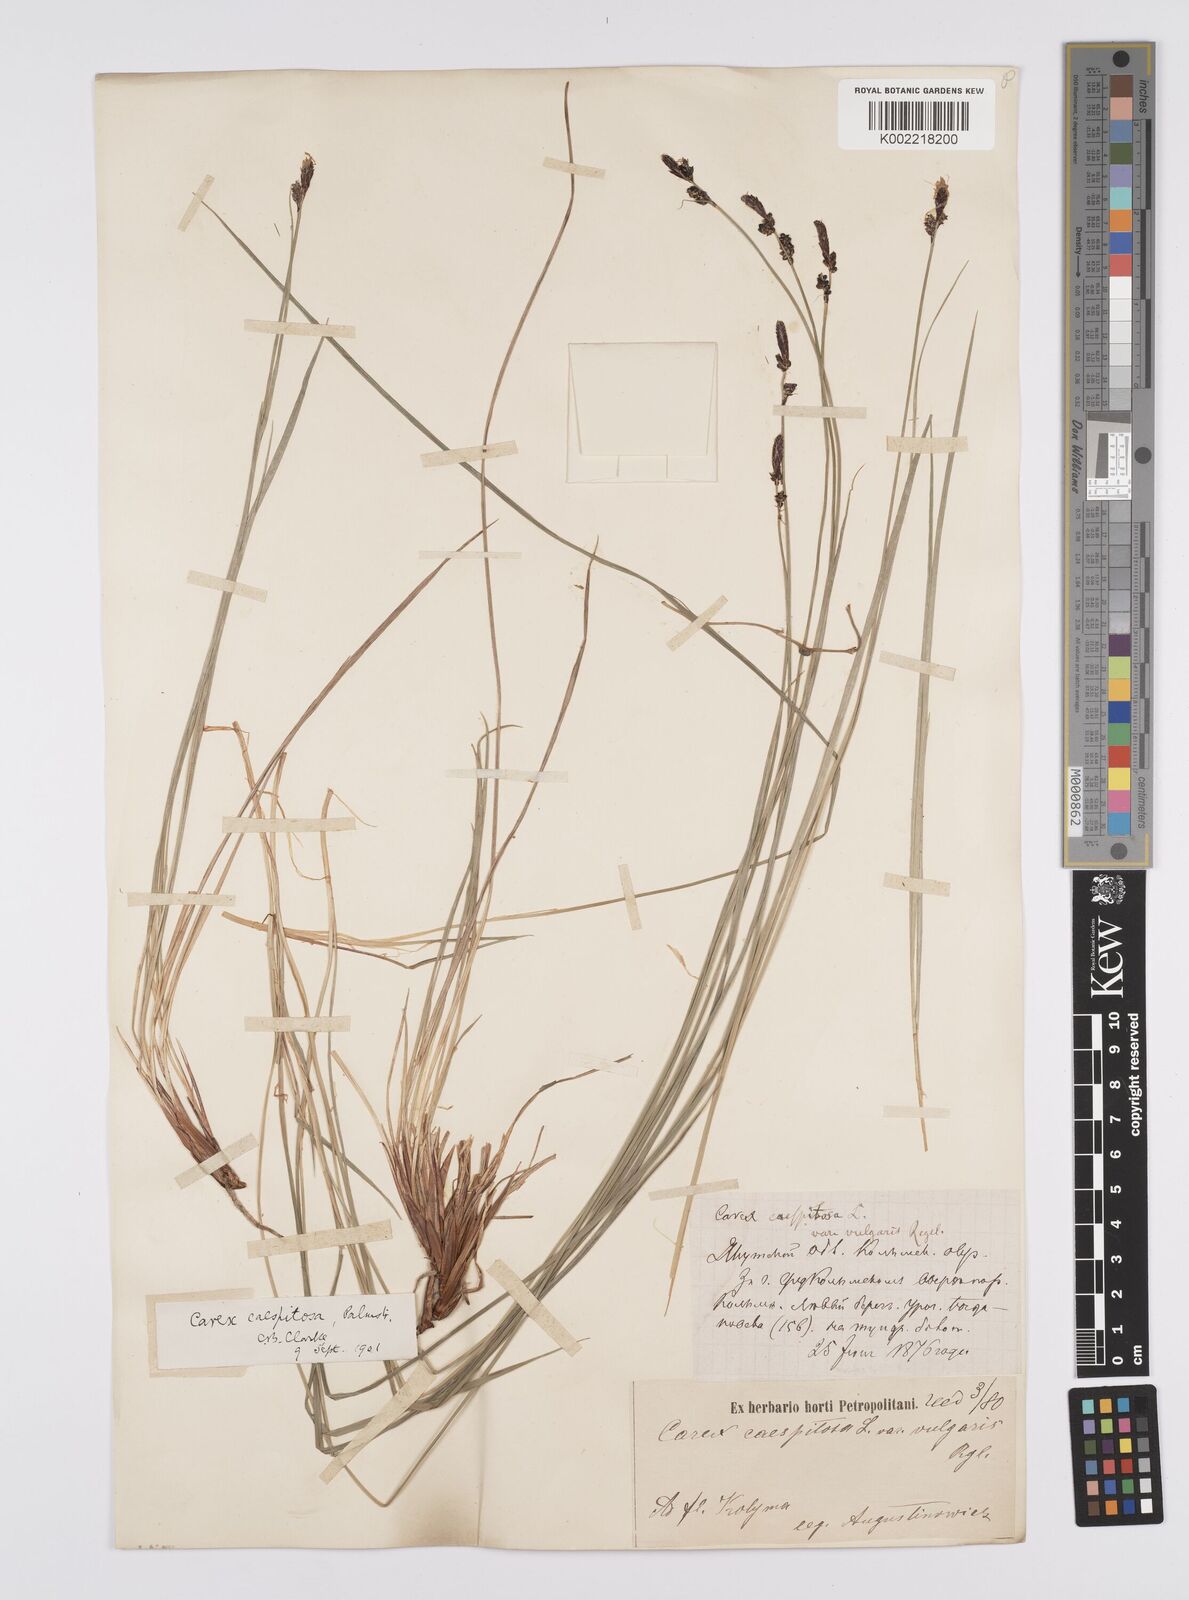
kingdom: Plantae
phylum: Tracheophyta
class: Liliopsida
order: Poales
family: Cyperaceae
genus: Carex
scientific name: Carex
